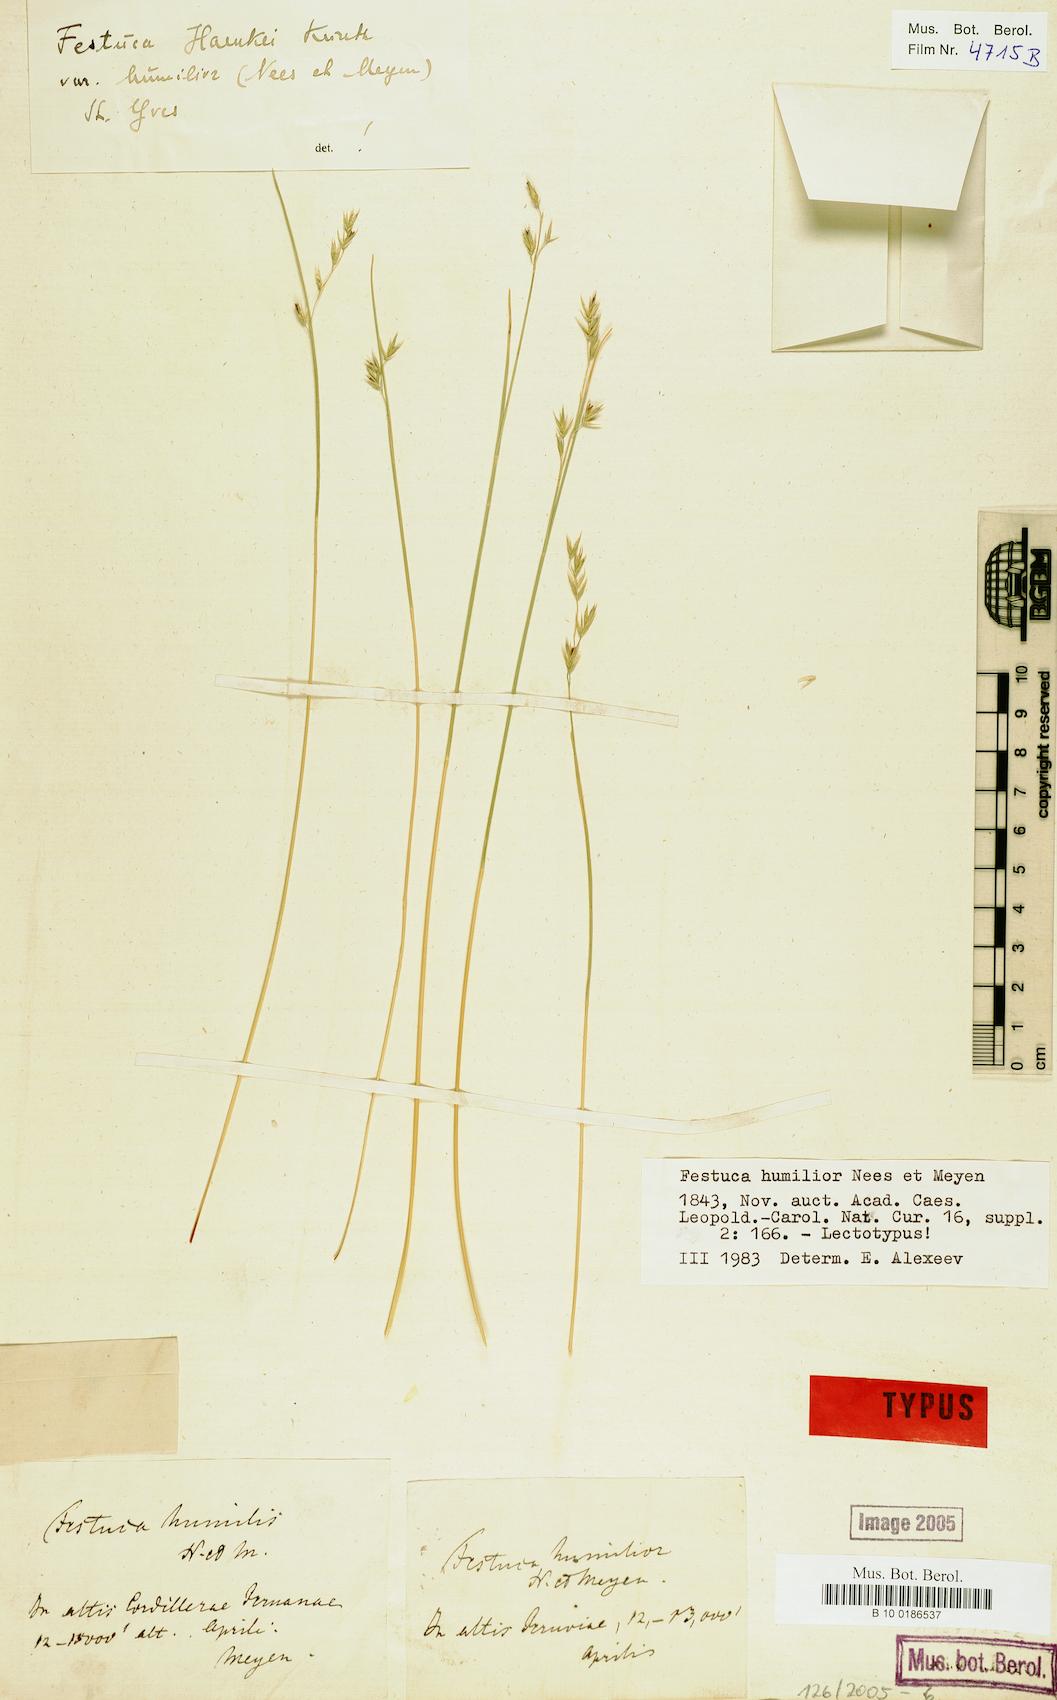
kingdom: Plantae
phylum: Tracheophyta
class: Liliopsida
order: Poales
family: Poaceae
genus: Festuca
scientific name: Festuca humilior
